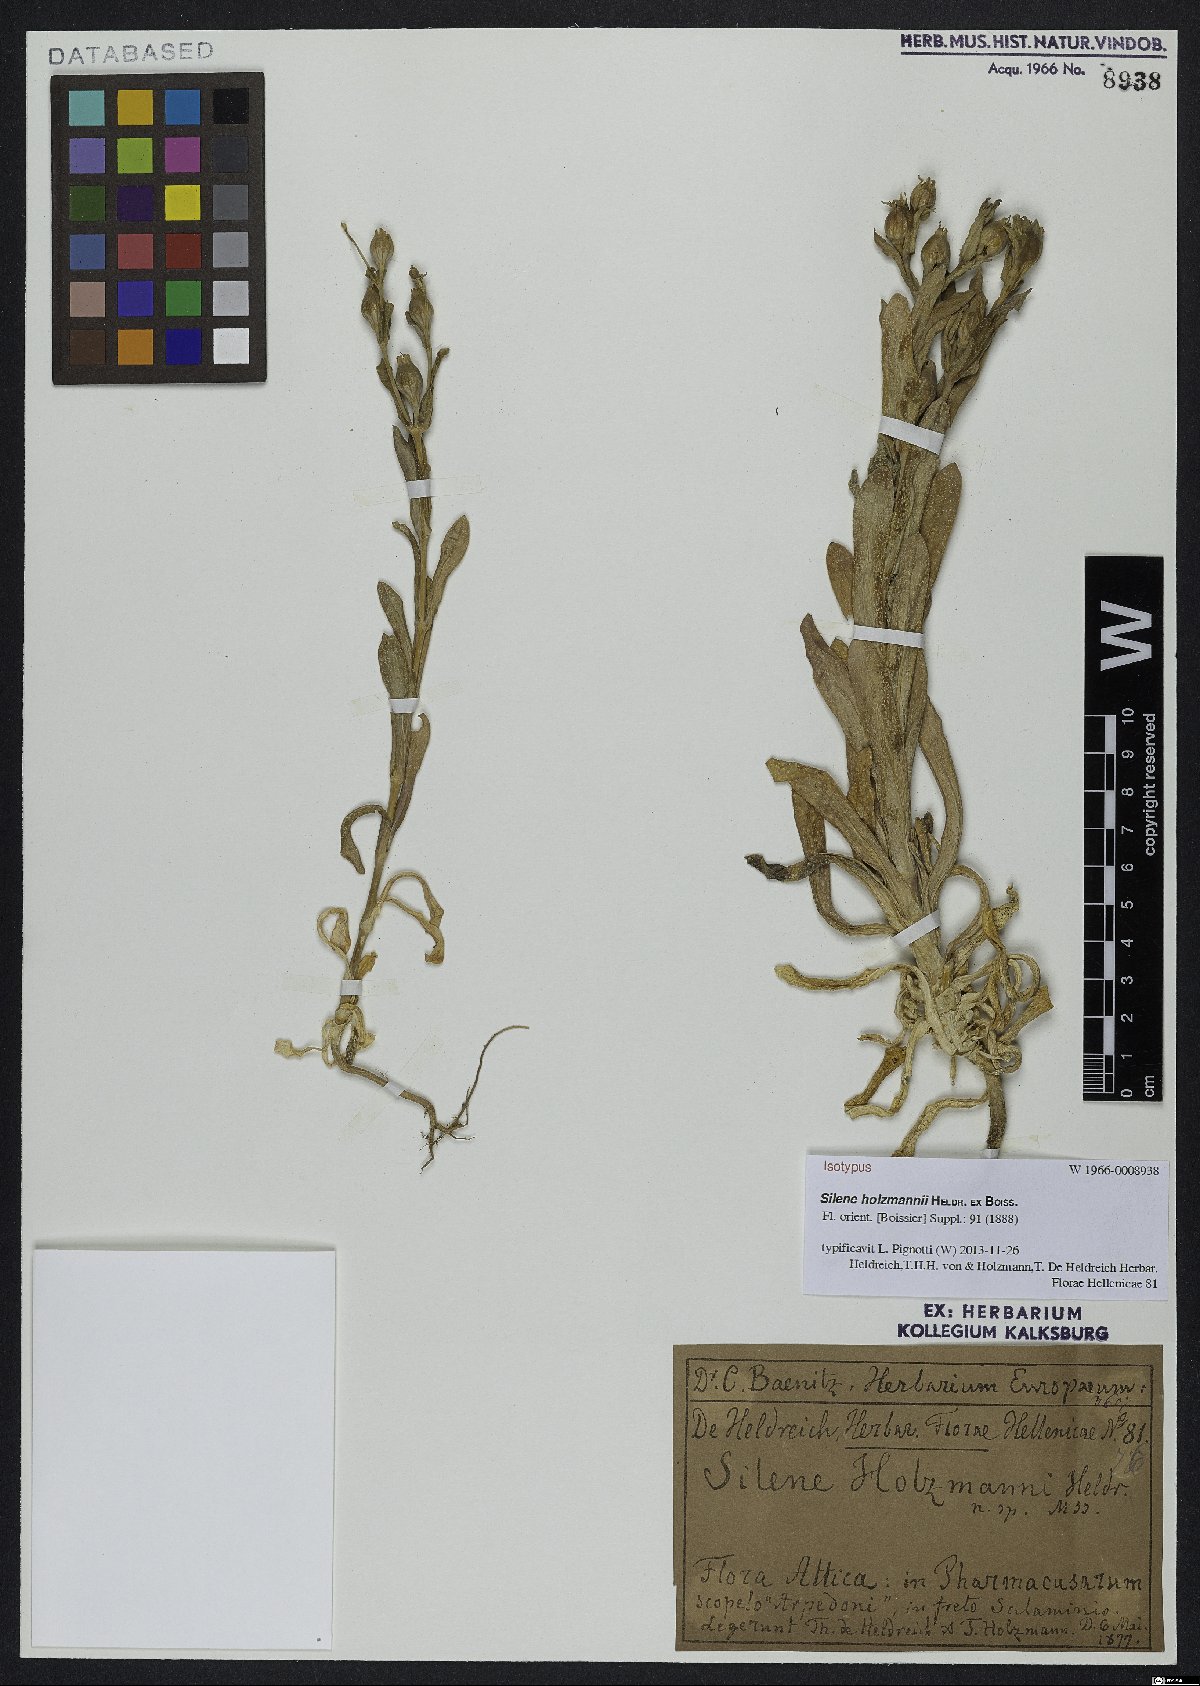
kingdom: Plantae
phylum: Tracheophyta
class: Magnoliopsida
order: Caryophyllales
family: Caryophyllaceae
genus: Silene
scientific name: Silene holzmannii
